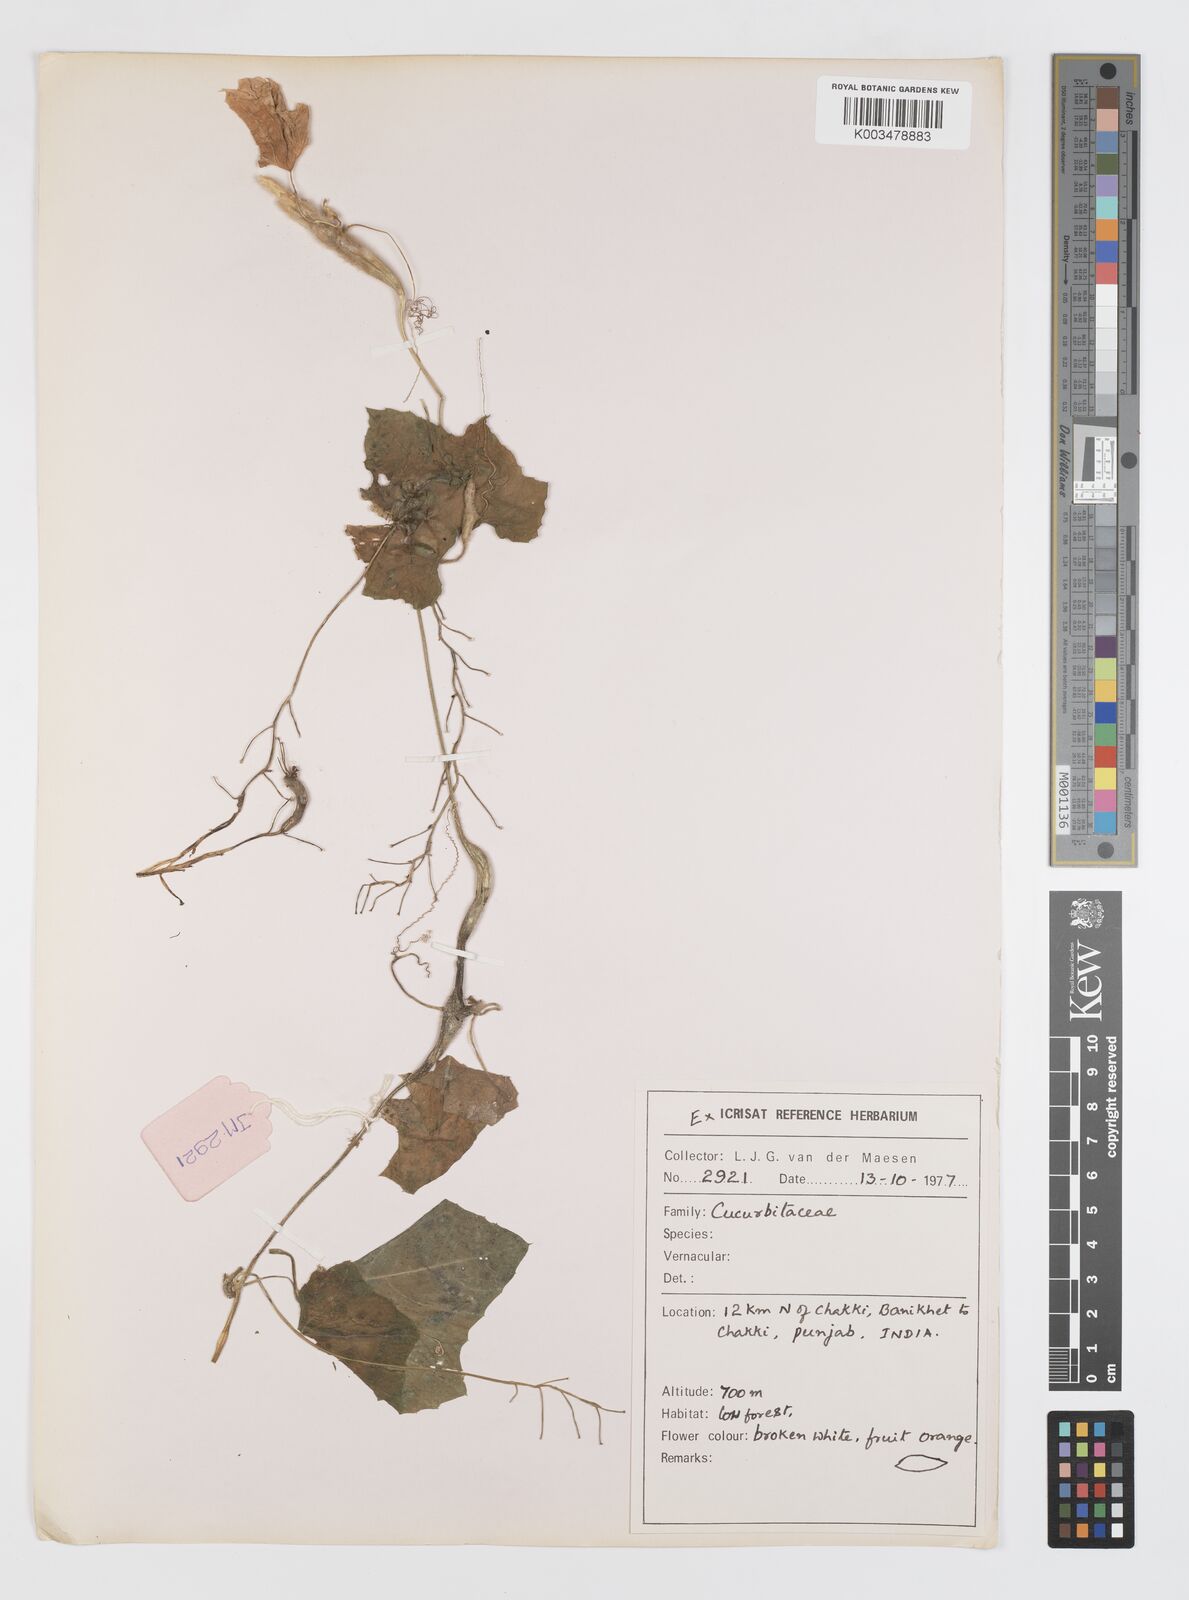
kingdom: Plantae
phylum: Tracheophyta
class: Magnoliopsida
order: Cucurbitales
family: Cucurbitaceae
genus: Trichosanthes
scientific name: Trichosanthes cucumerina
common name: Snakegourd
